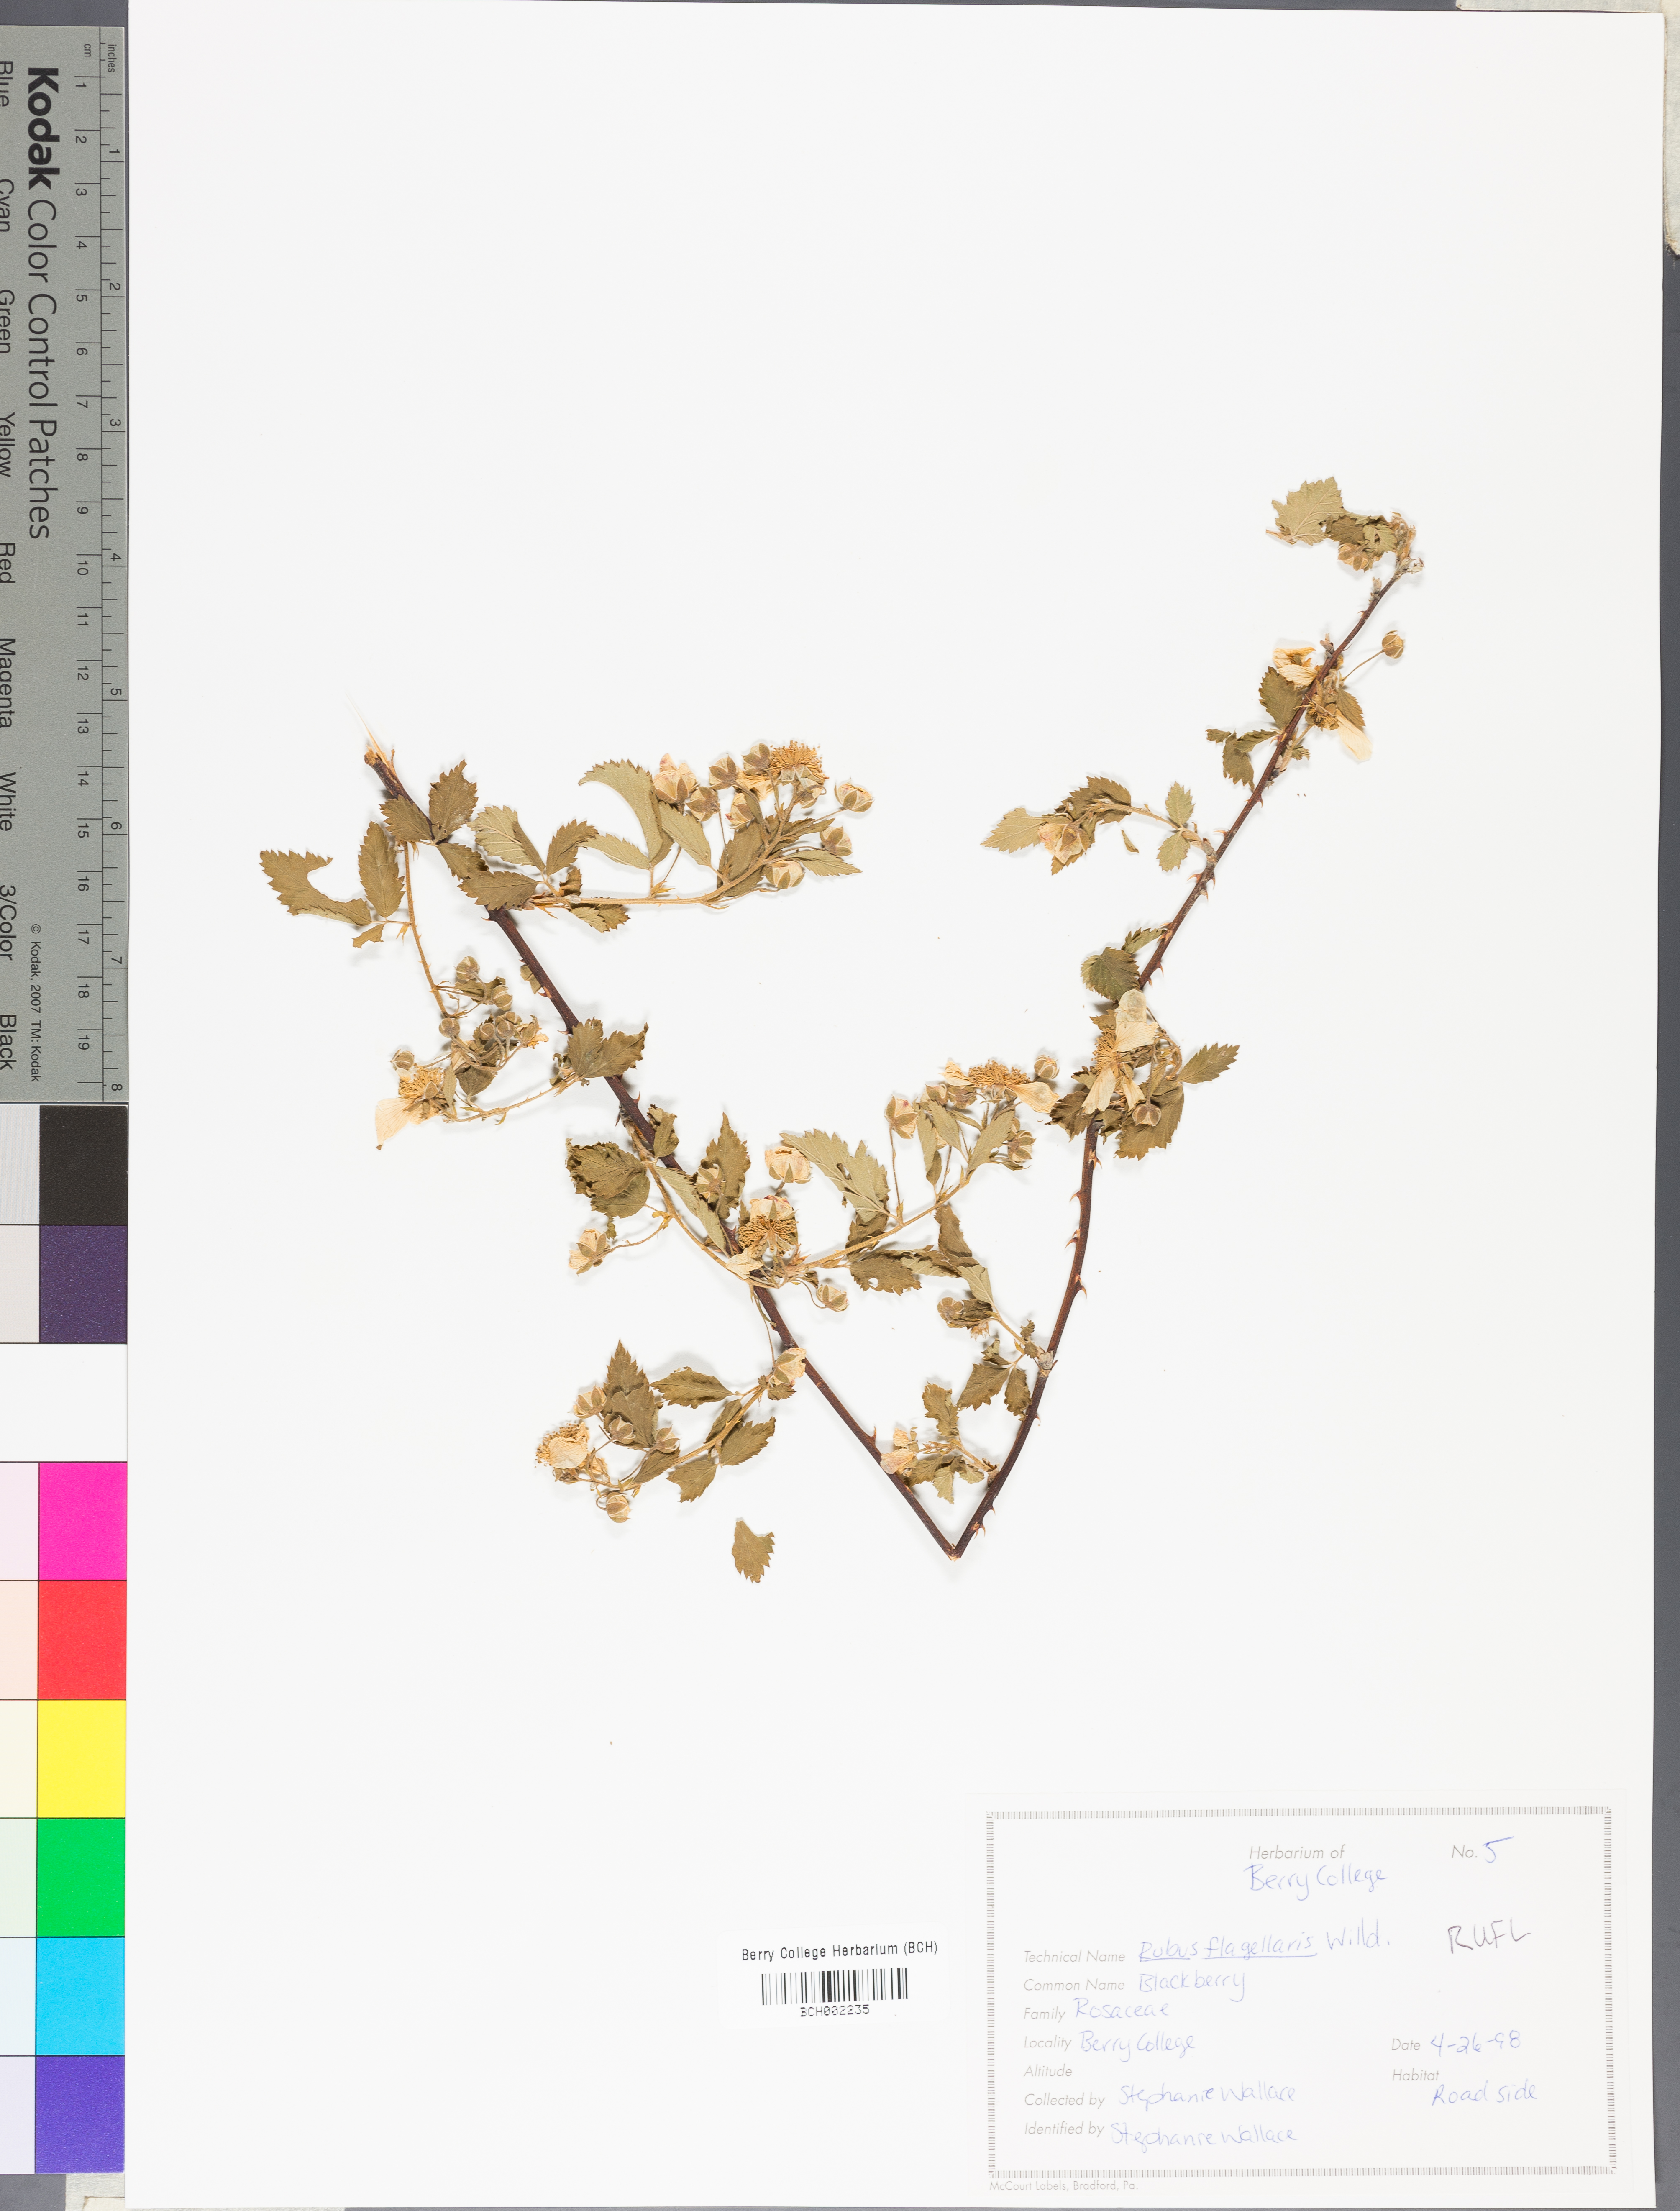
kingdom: Plantae
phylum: Tracheophyta
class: Magnoliopsida
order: Rosales
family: Rosaceae
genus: Rubus
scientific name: Rubus flagellaris
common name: American dewberry
